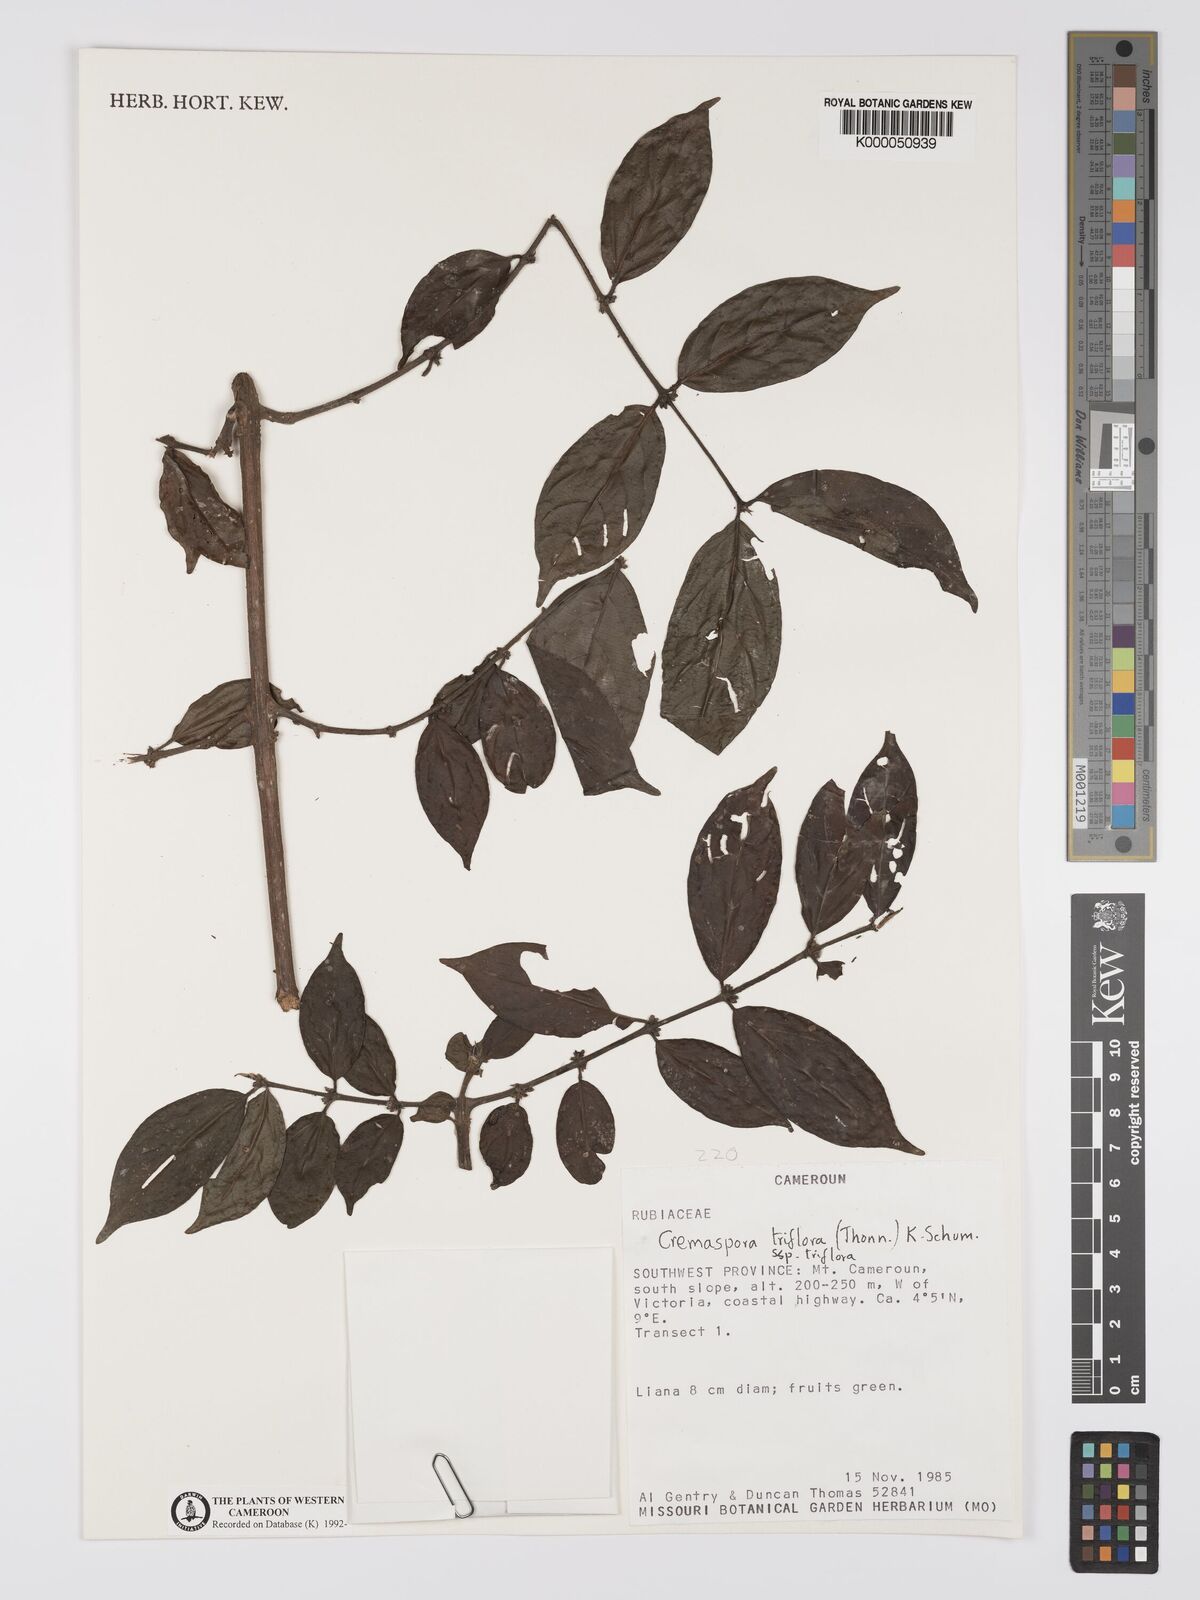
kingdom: Plantae
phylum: Tracheophyta
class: Magnoliopsida
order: Gentianales
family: Rubiaceae
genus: Cremaspora
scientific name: Cremaspora triflora
